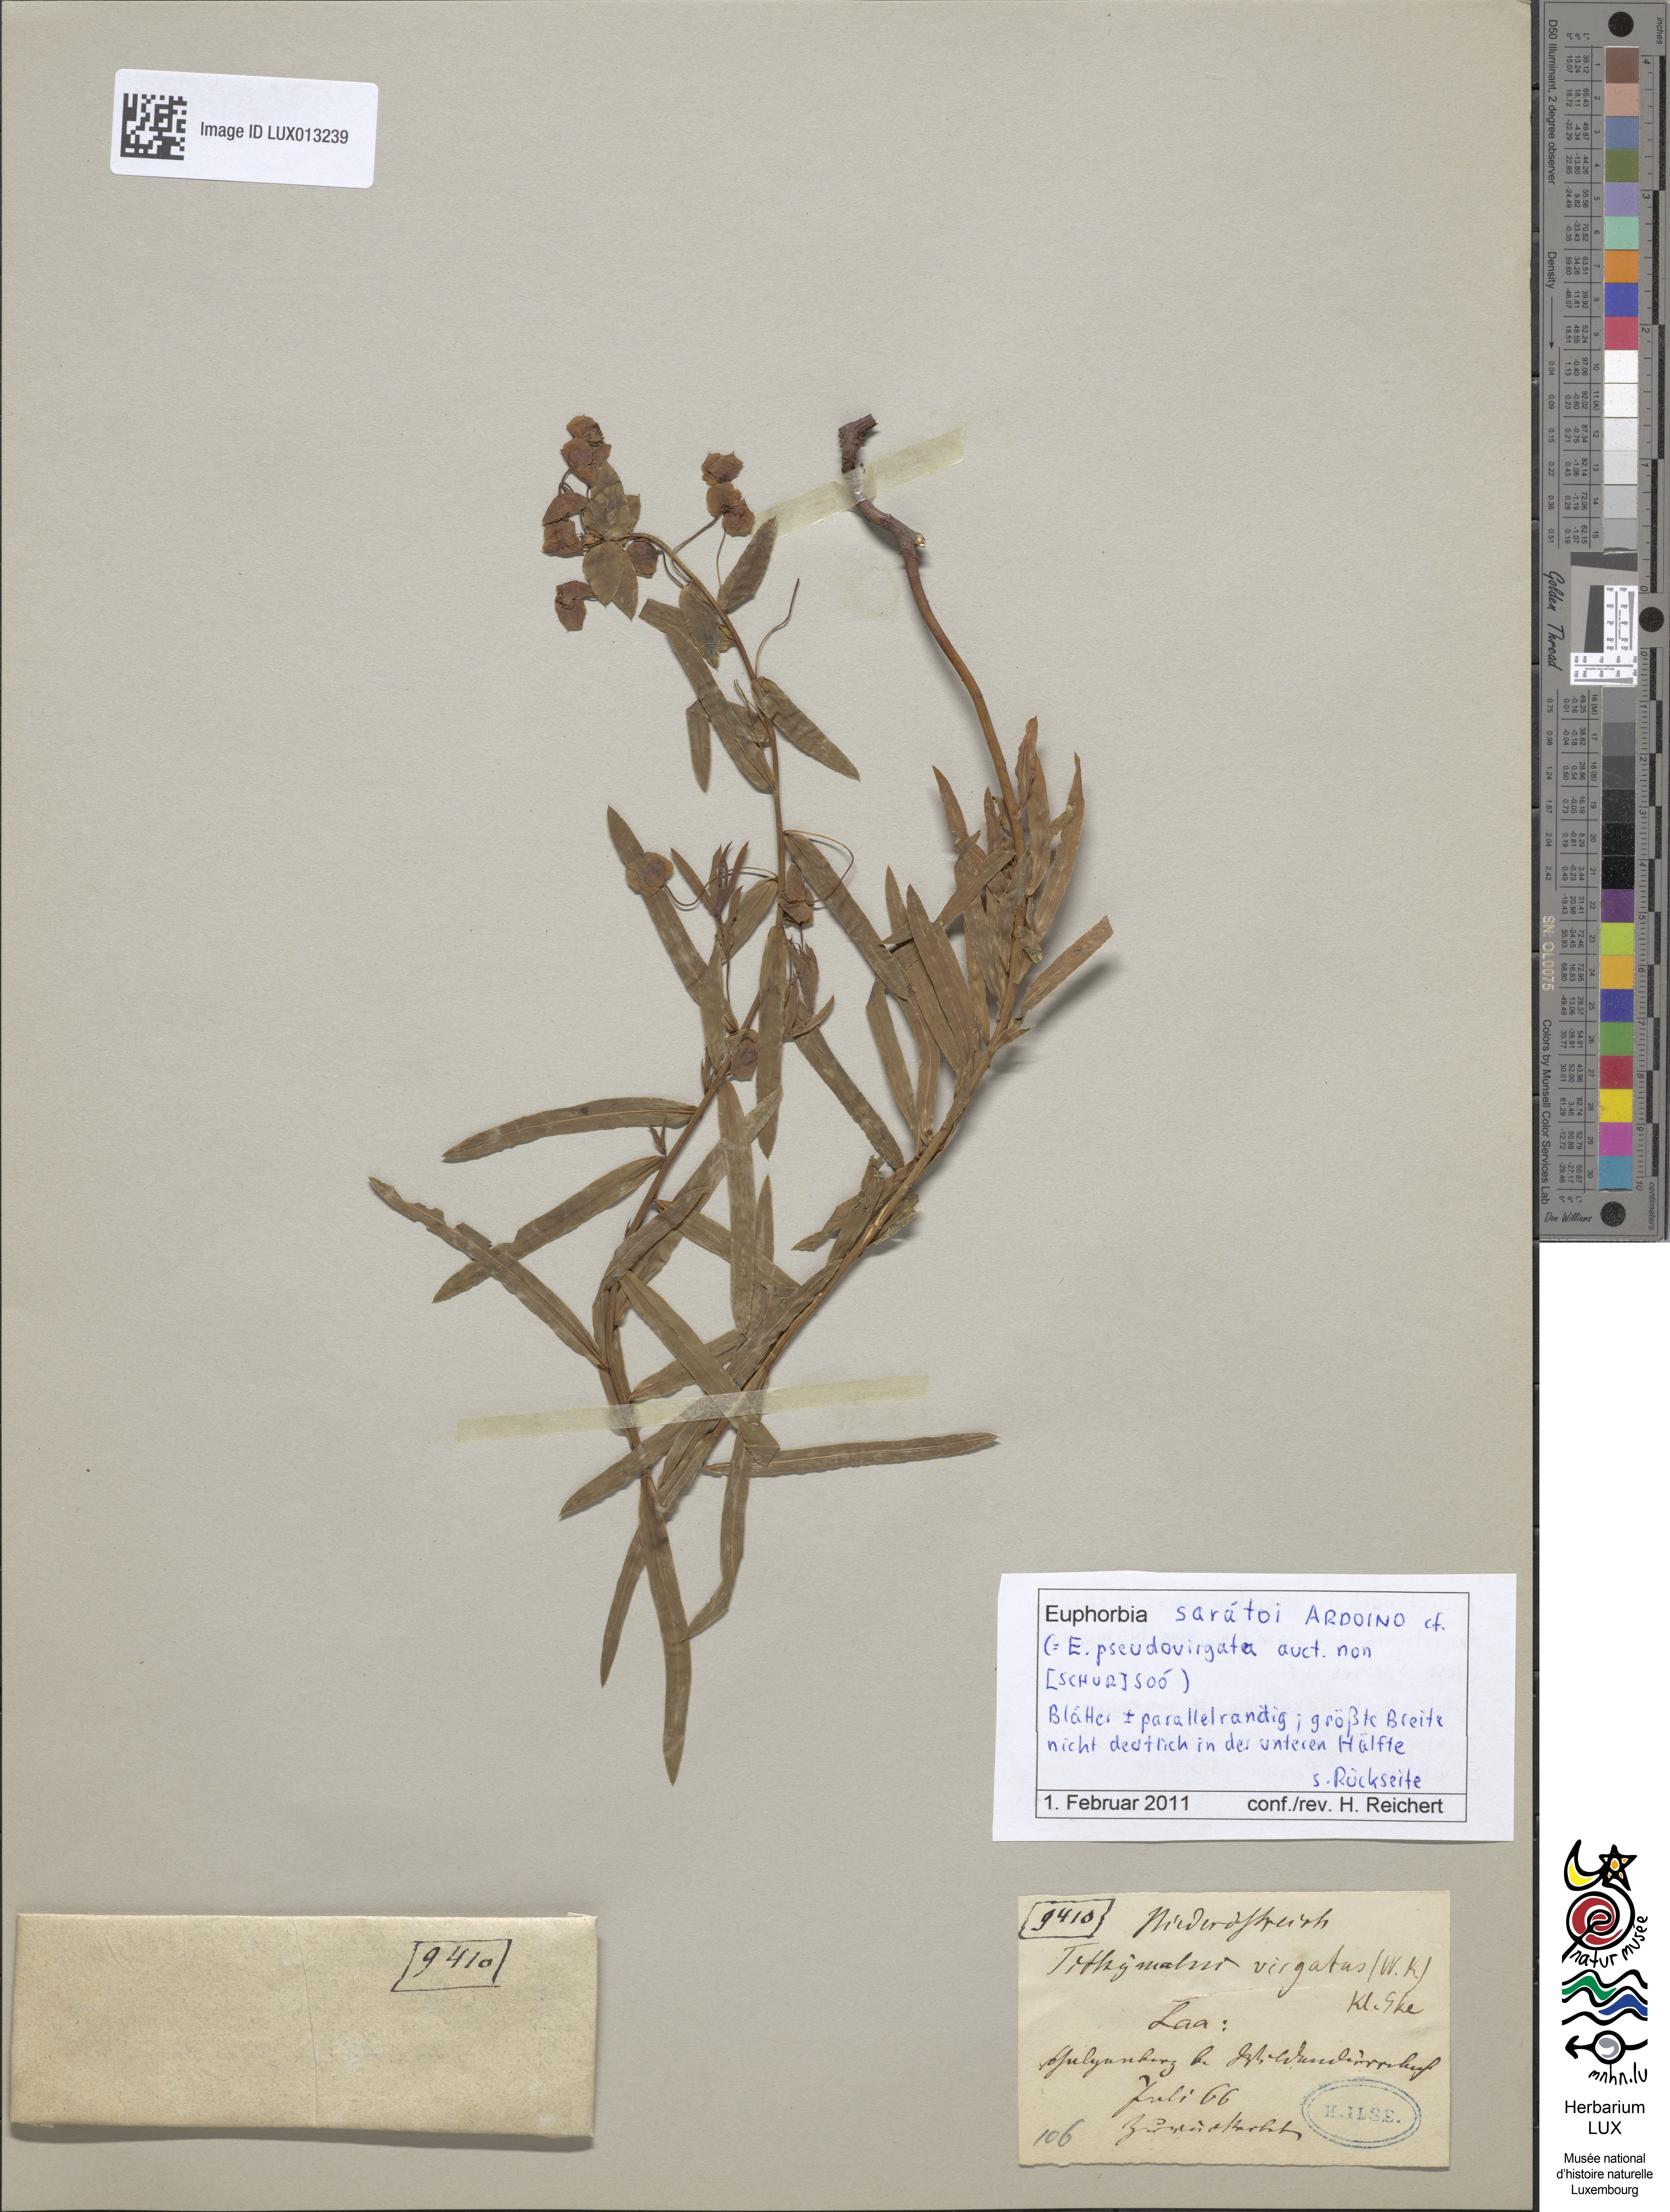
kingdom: Plantae
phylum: Tracheophyta
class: Magnoliopsida
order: Malpighiales
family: Euphorbiaceae
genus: Euphorbia
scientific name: Euphorbia saratoi
